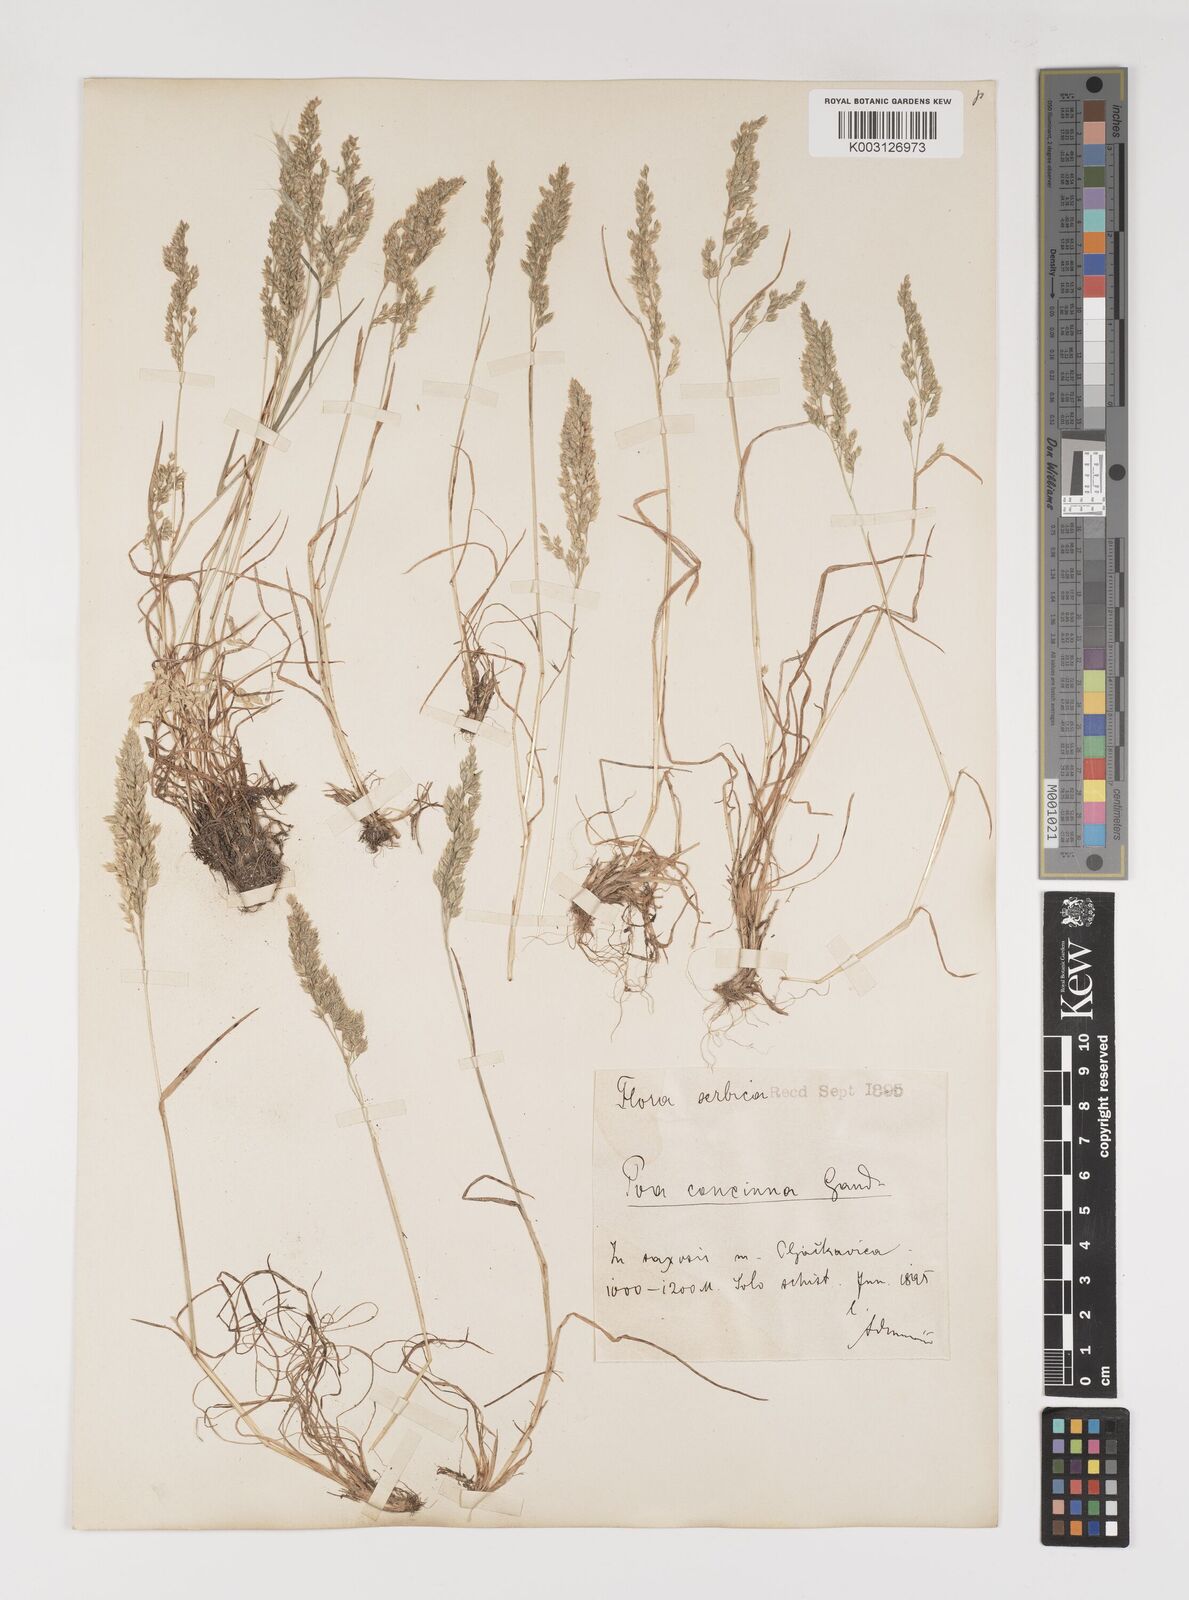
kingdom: Plantae
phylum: Tracheophyta
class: Liliopsida
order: Poales
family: Poaceae
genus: Poa
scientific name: Poa perconcinna
